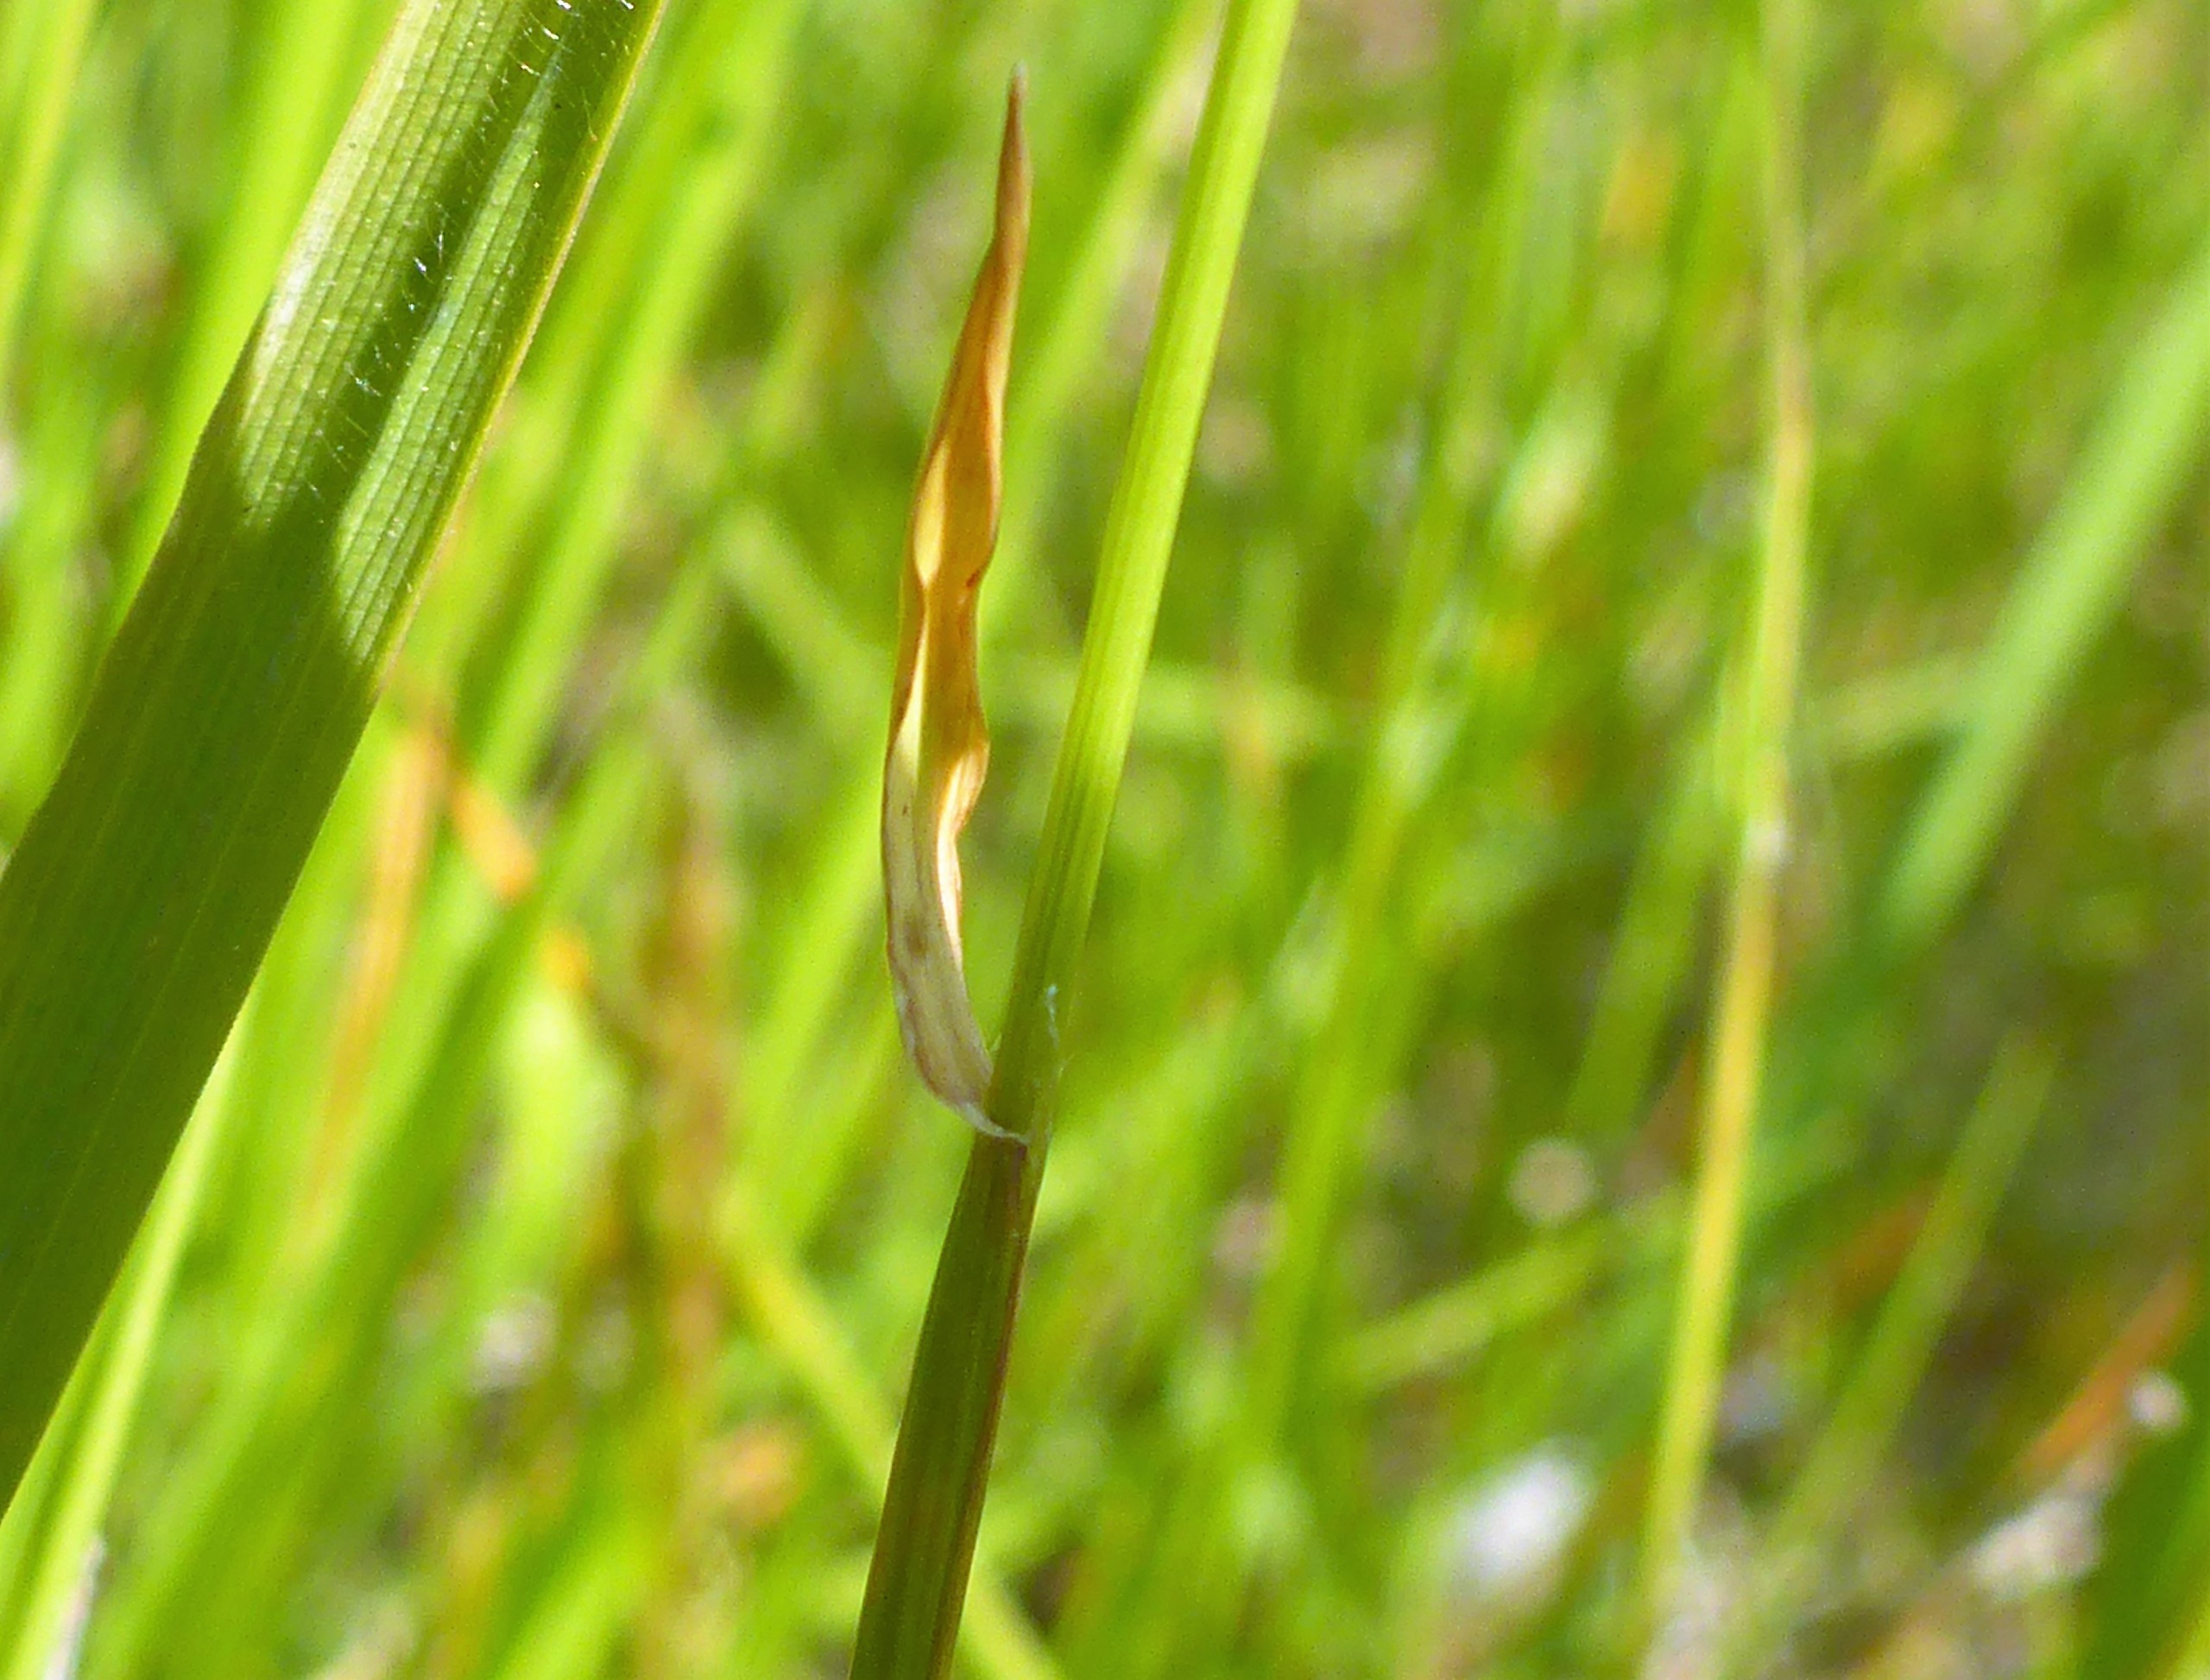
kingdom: Plantae
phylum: Tracheophyta
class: Liliopsida
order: Poales
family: Poaceae
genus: Anthoxanthum
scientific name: Anthoxanthum odoratum
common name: Vellugtende gulaks
